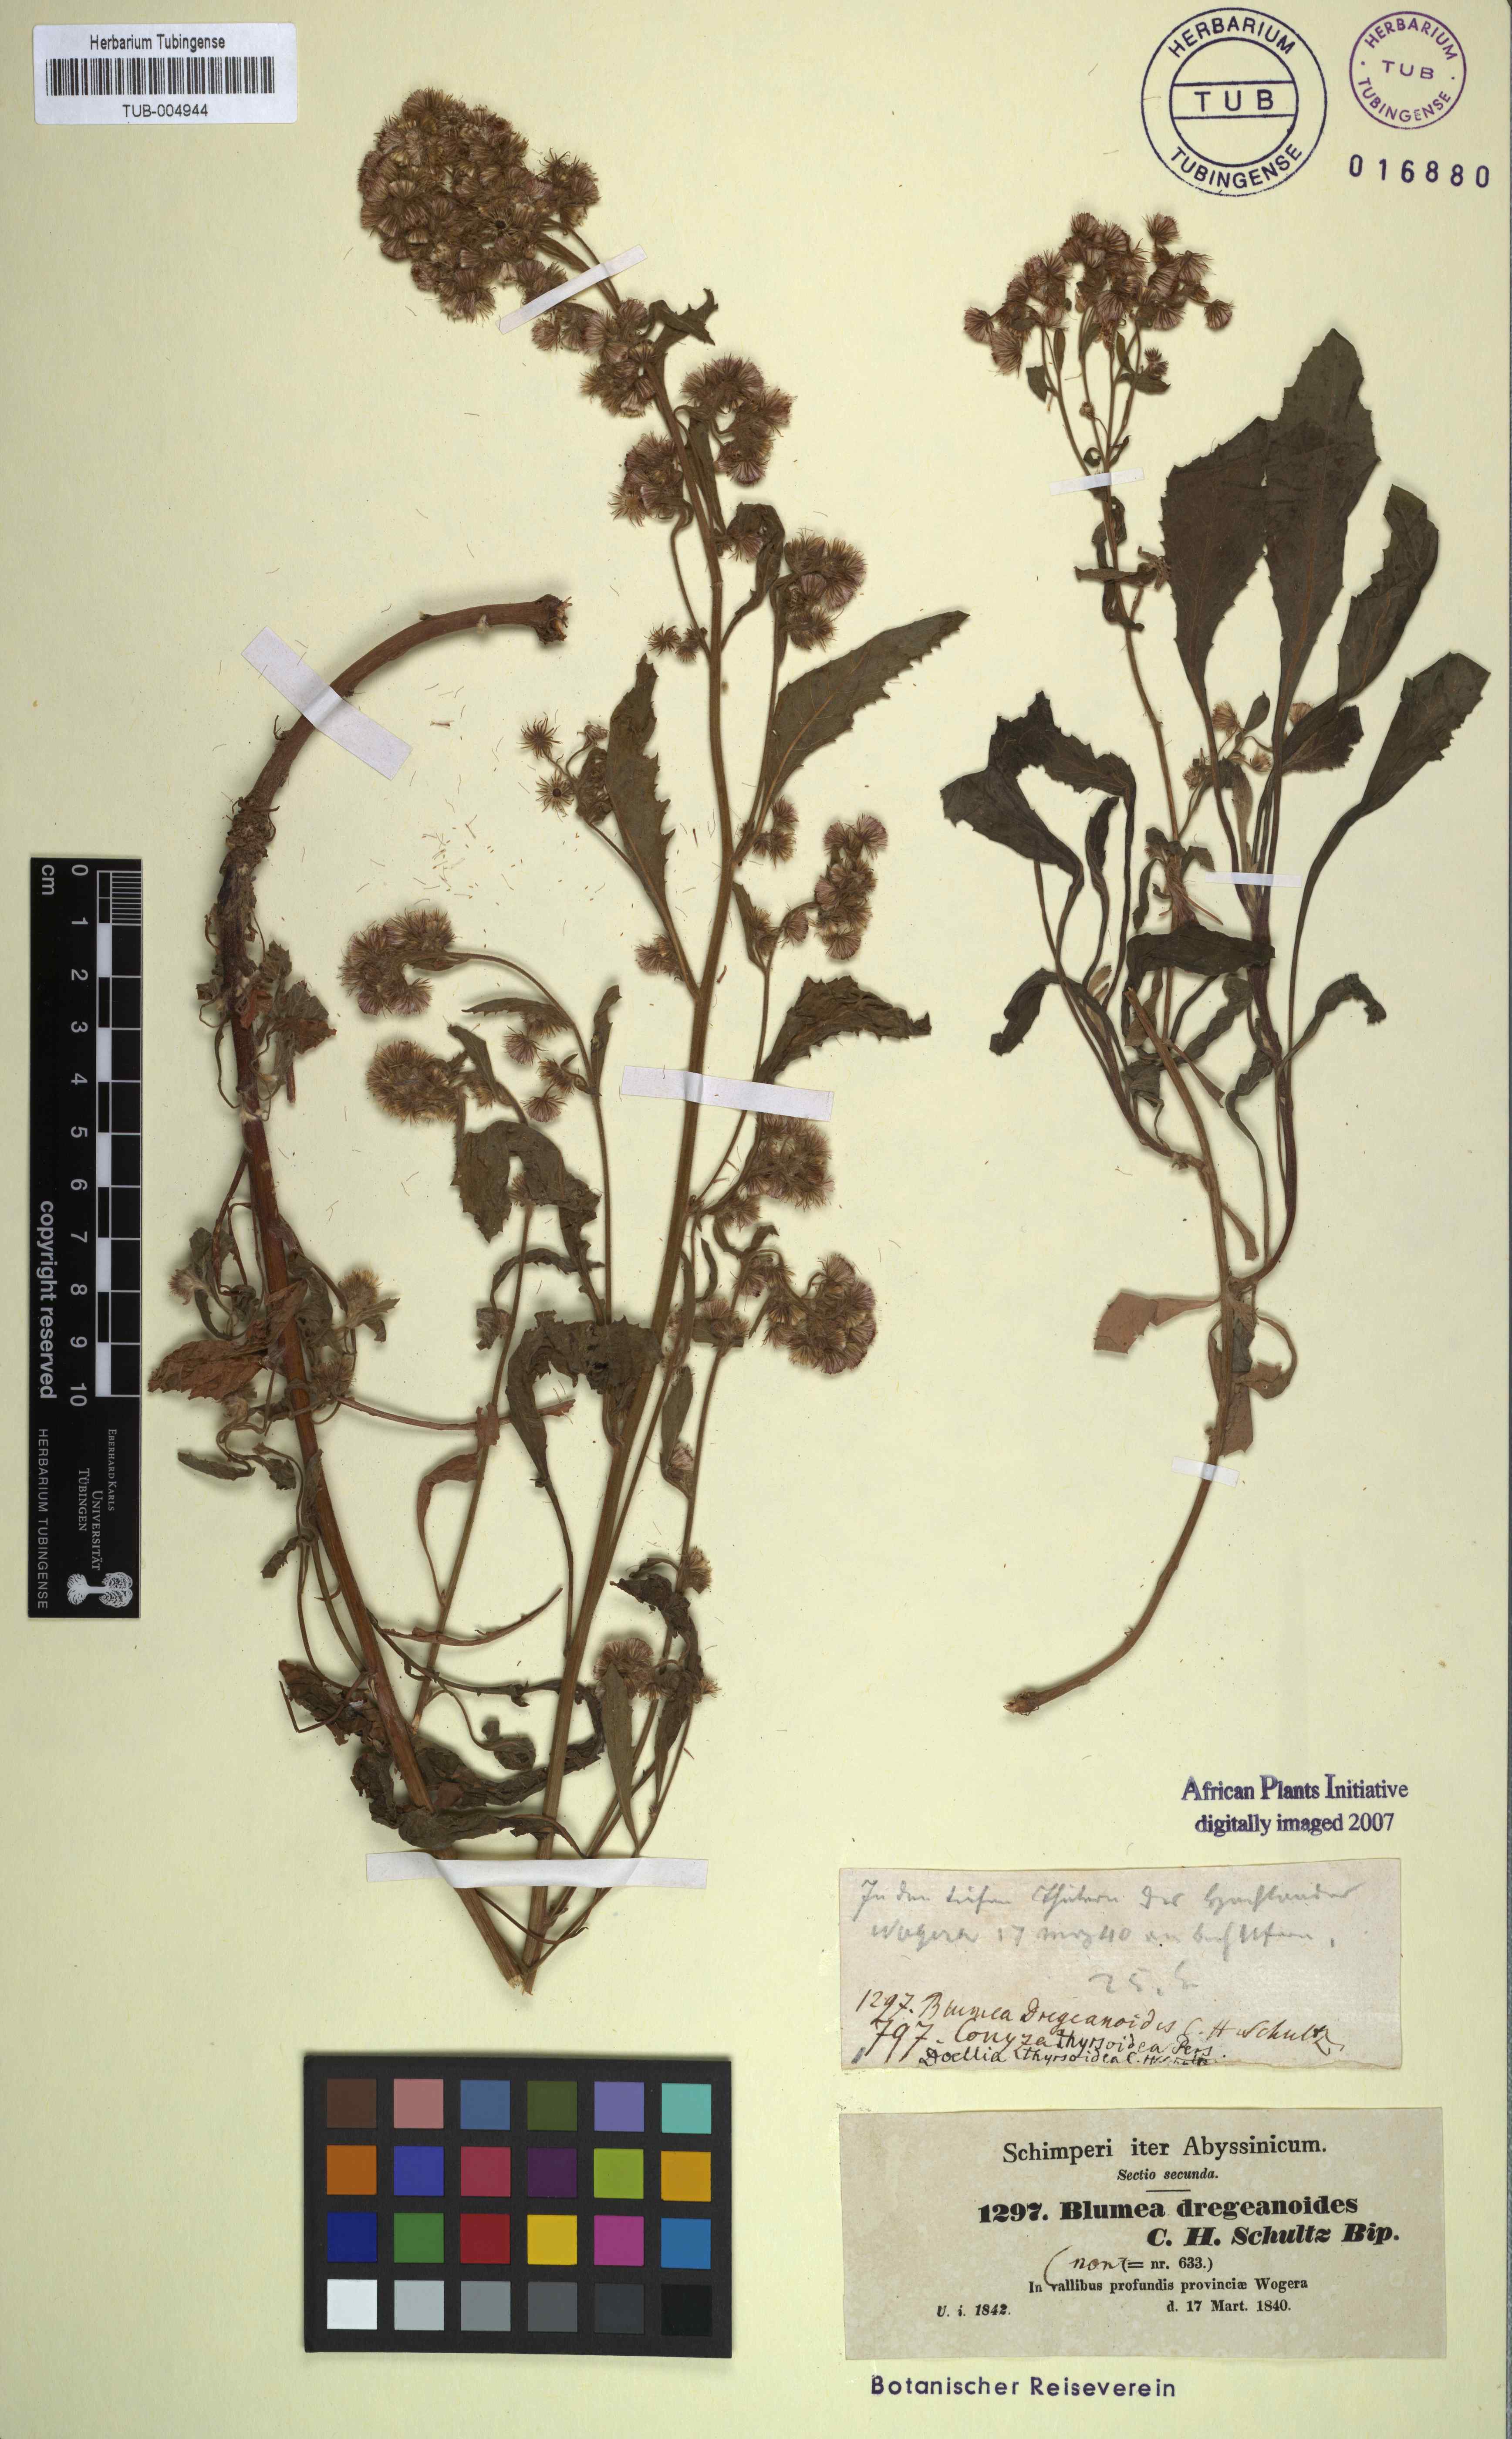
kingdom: Plantae
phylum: Tracheophyta
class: Magnoliopsida
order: Asterales
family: Asteraceae
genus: Blumea
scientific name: Blumea lacera
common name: Malay blumea
